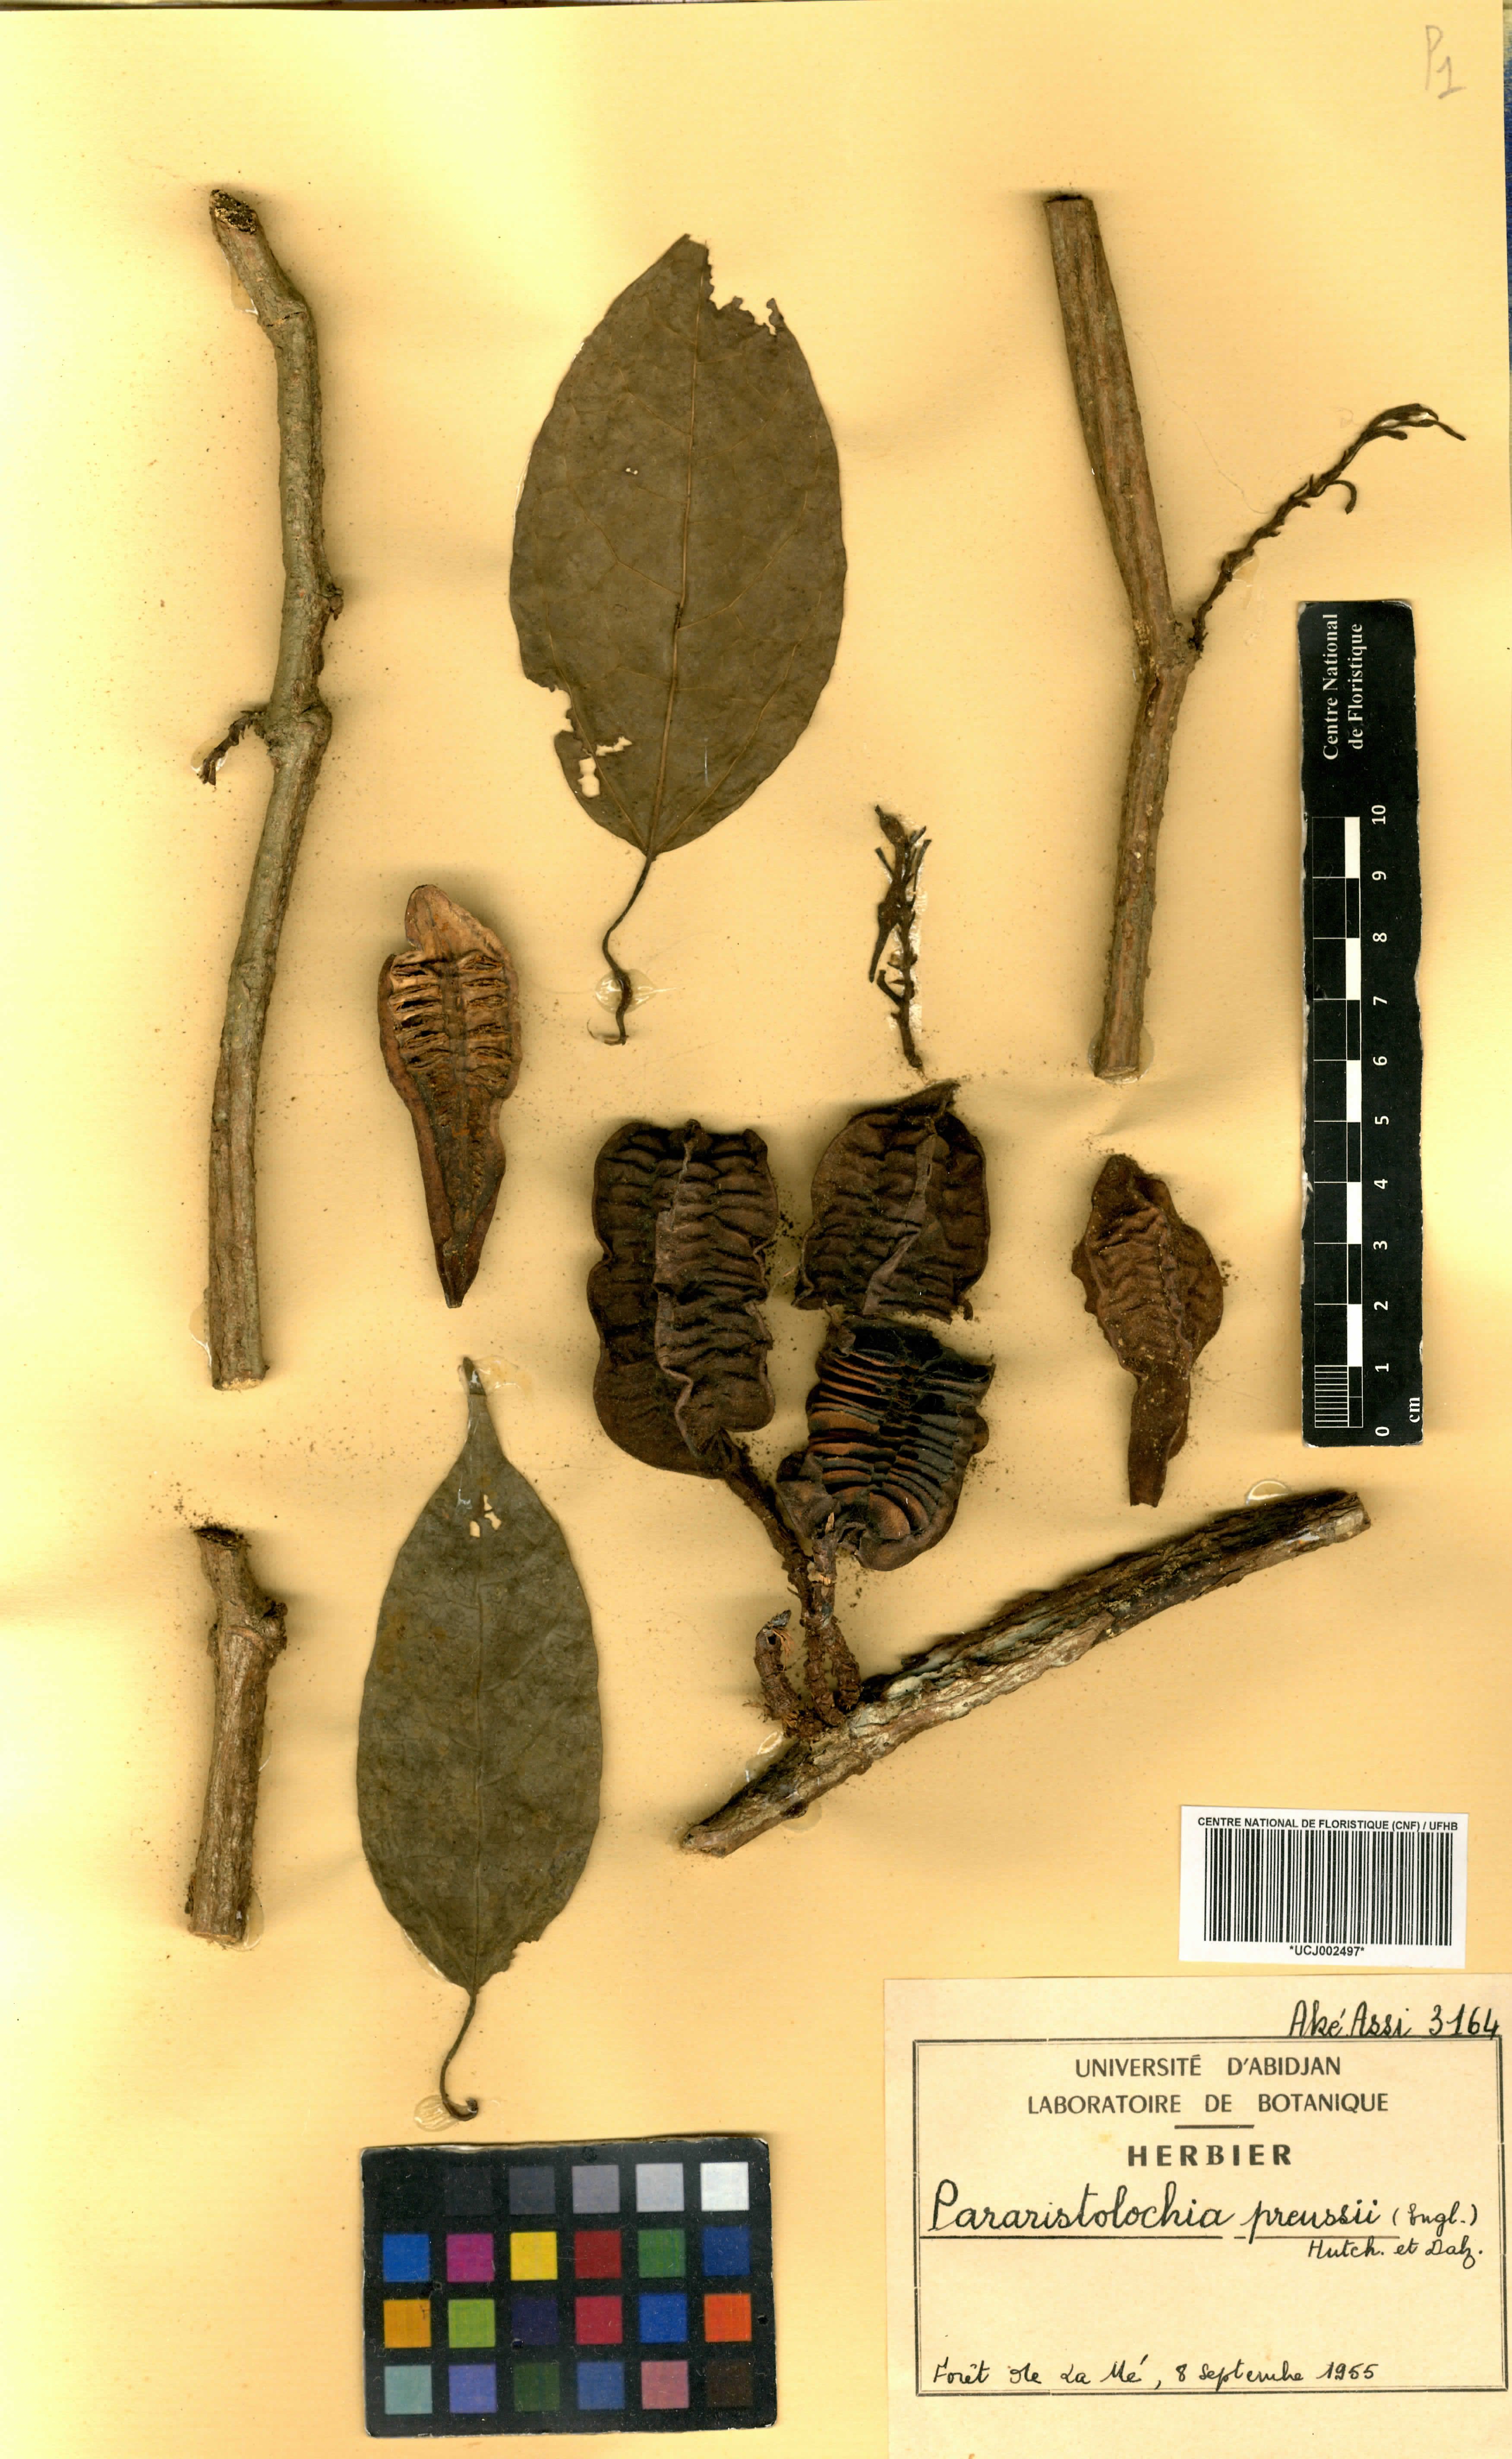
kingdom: Plantae
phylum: Tracheophyta
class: Magnoliopsida
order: Piperales
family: Aristolochiaceae
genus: Aristolochia
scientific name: Aristolochia preussii
